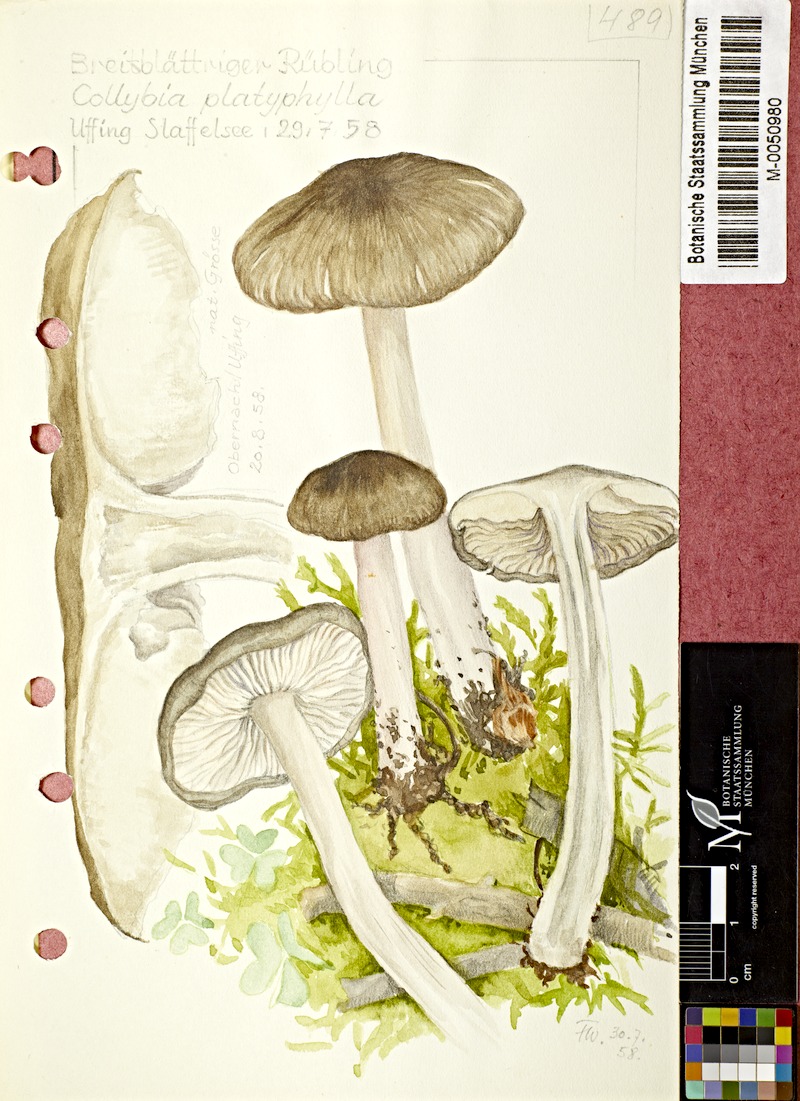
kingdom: Fungi
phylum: Basidiomycota
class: Agaricomycetes
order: Agaricales
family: Tricholomataceae
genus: Megacollybia
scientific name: Megacollybia platyphylla
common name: Whitelaced shank
